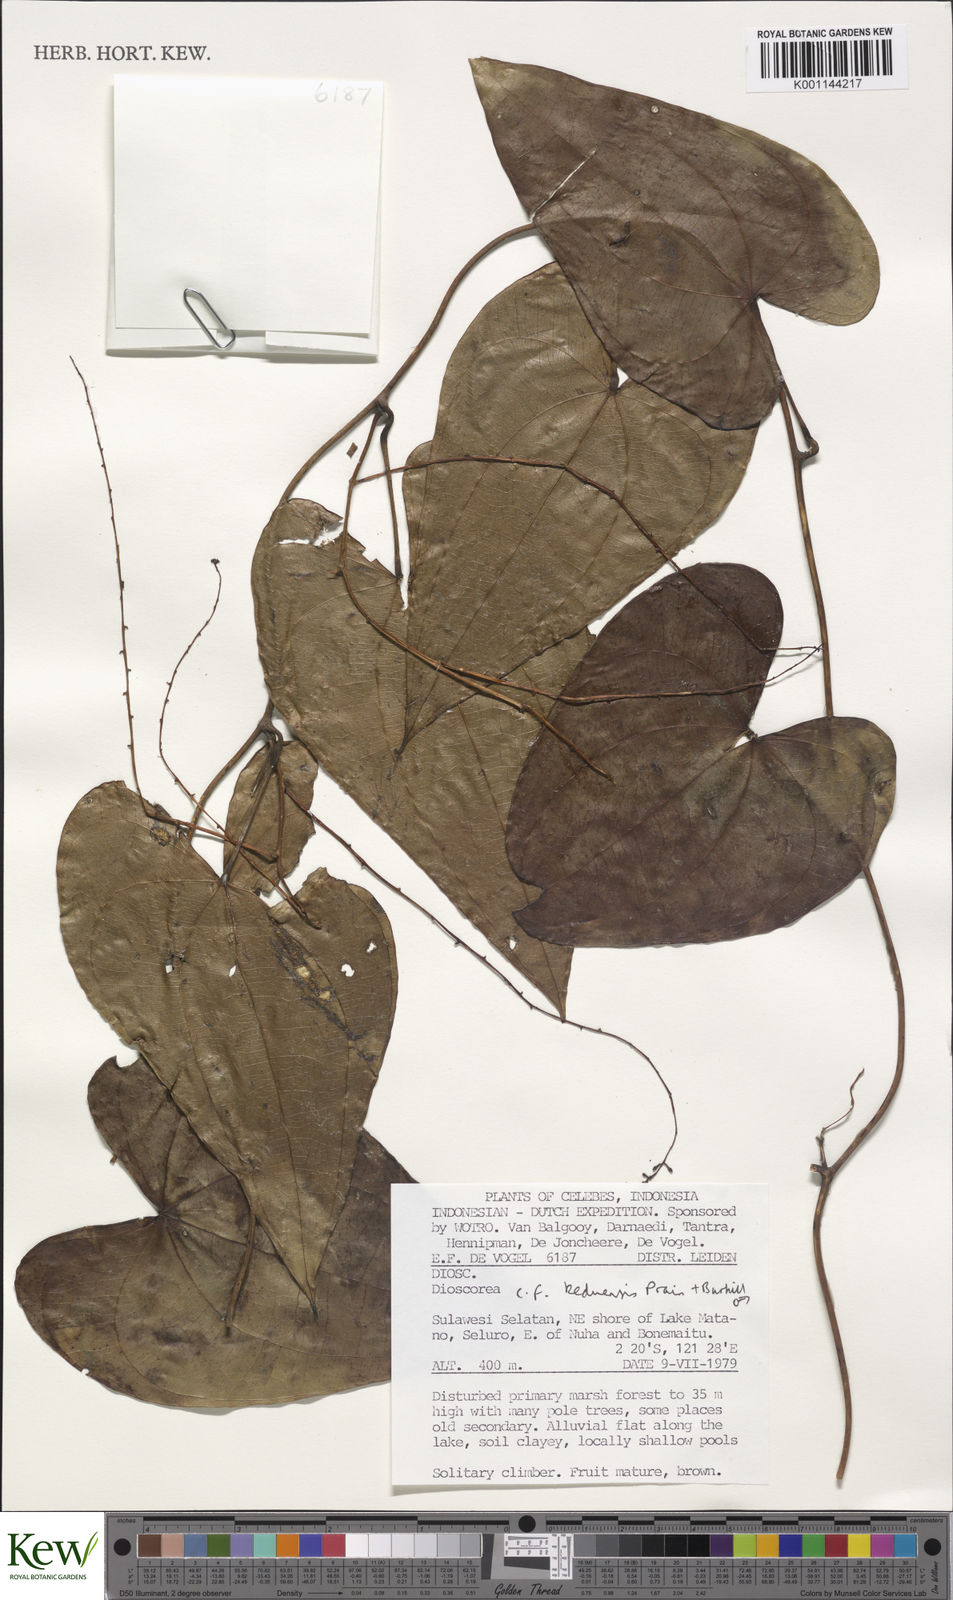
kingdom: Plantae
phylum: Tracheophyta
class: Liliopsida
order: Dioscoreales
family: Dioscoreaceae
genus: Dioscorea
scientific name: Dioscorea keduensis
